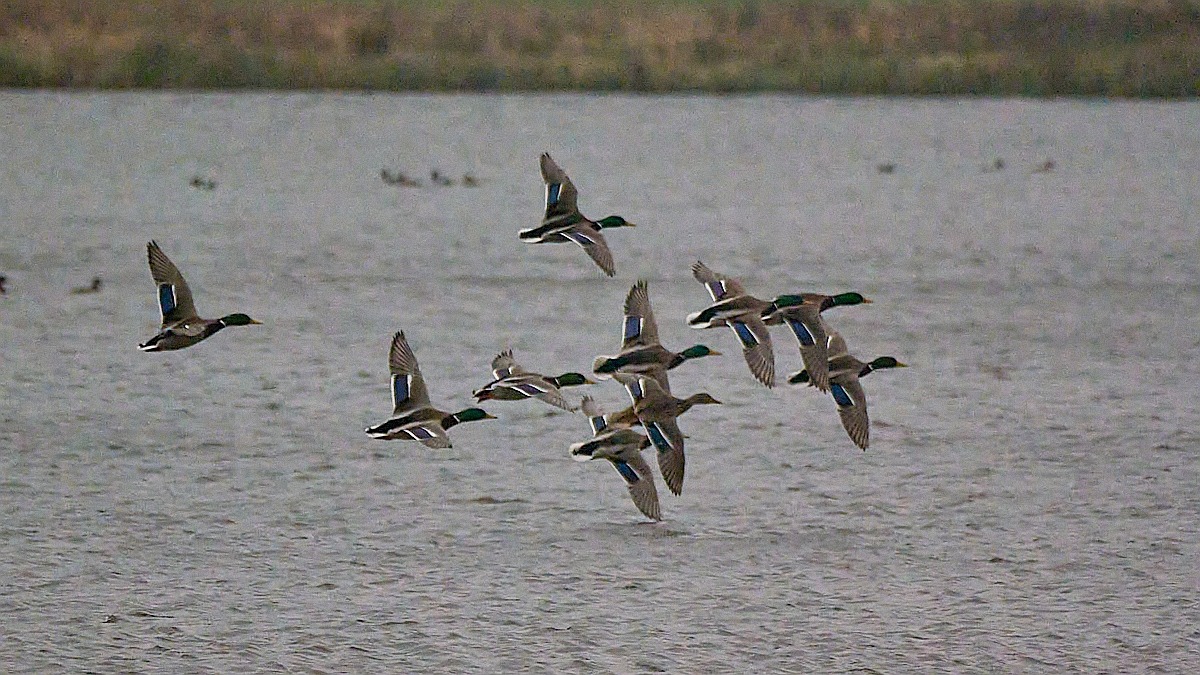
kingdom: Animalia
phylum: Chordata
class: Aves
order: Anseriformes
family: Anatidae
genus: Anas
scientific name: Anas platyrhynchos
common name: Gråand
